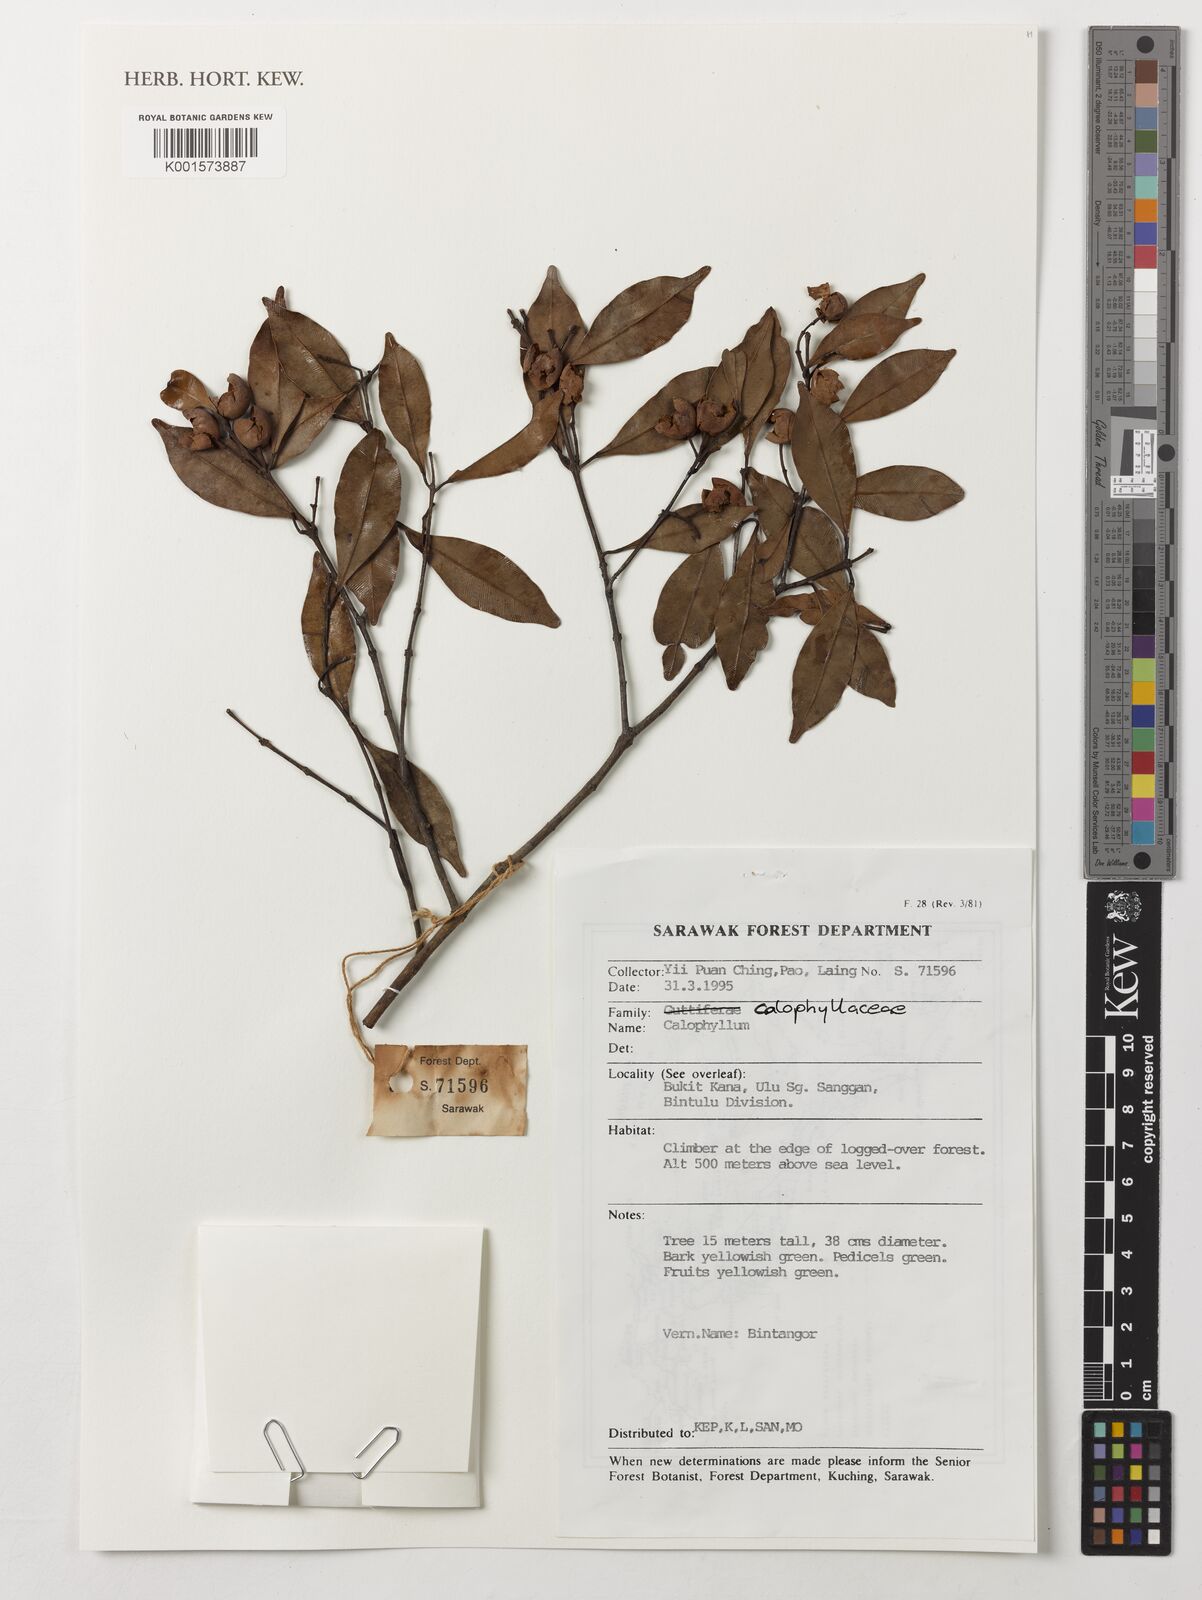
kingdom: Plantae
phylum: Tracheophyta
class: Magnoliopsida
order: Malpighiales
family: Calophyllaceae
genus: Calophyllum
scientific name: Calophyllum
